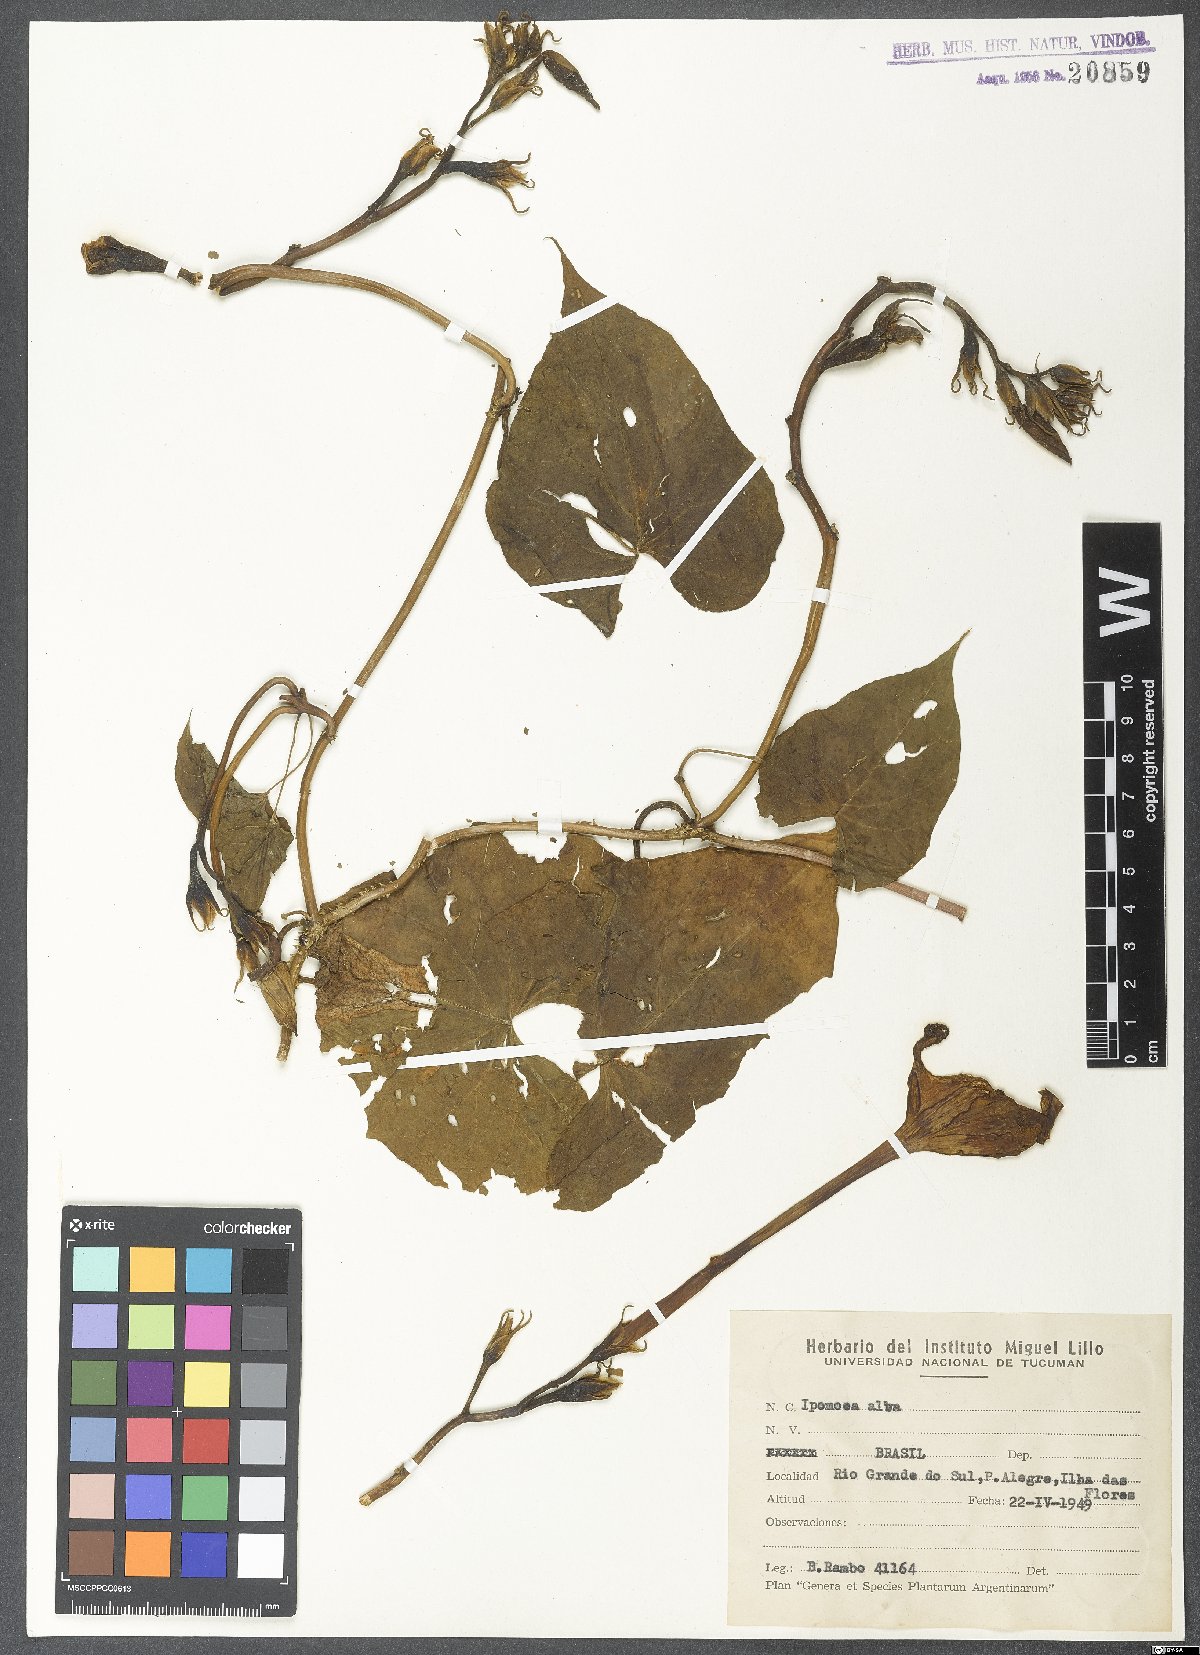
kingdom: Plantae
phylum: Tracheophyta
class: Magnoliopsida
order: Solanales
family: Convolvulaceae
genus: Ipomoea
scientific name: Ipomoea alba
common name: Moonflower
